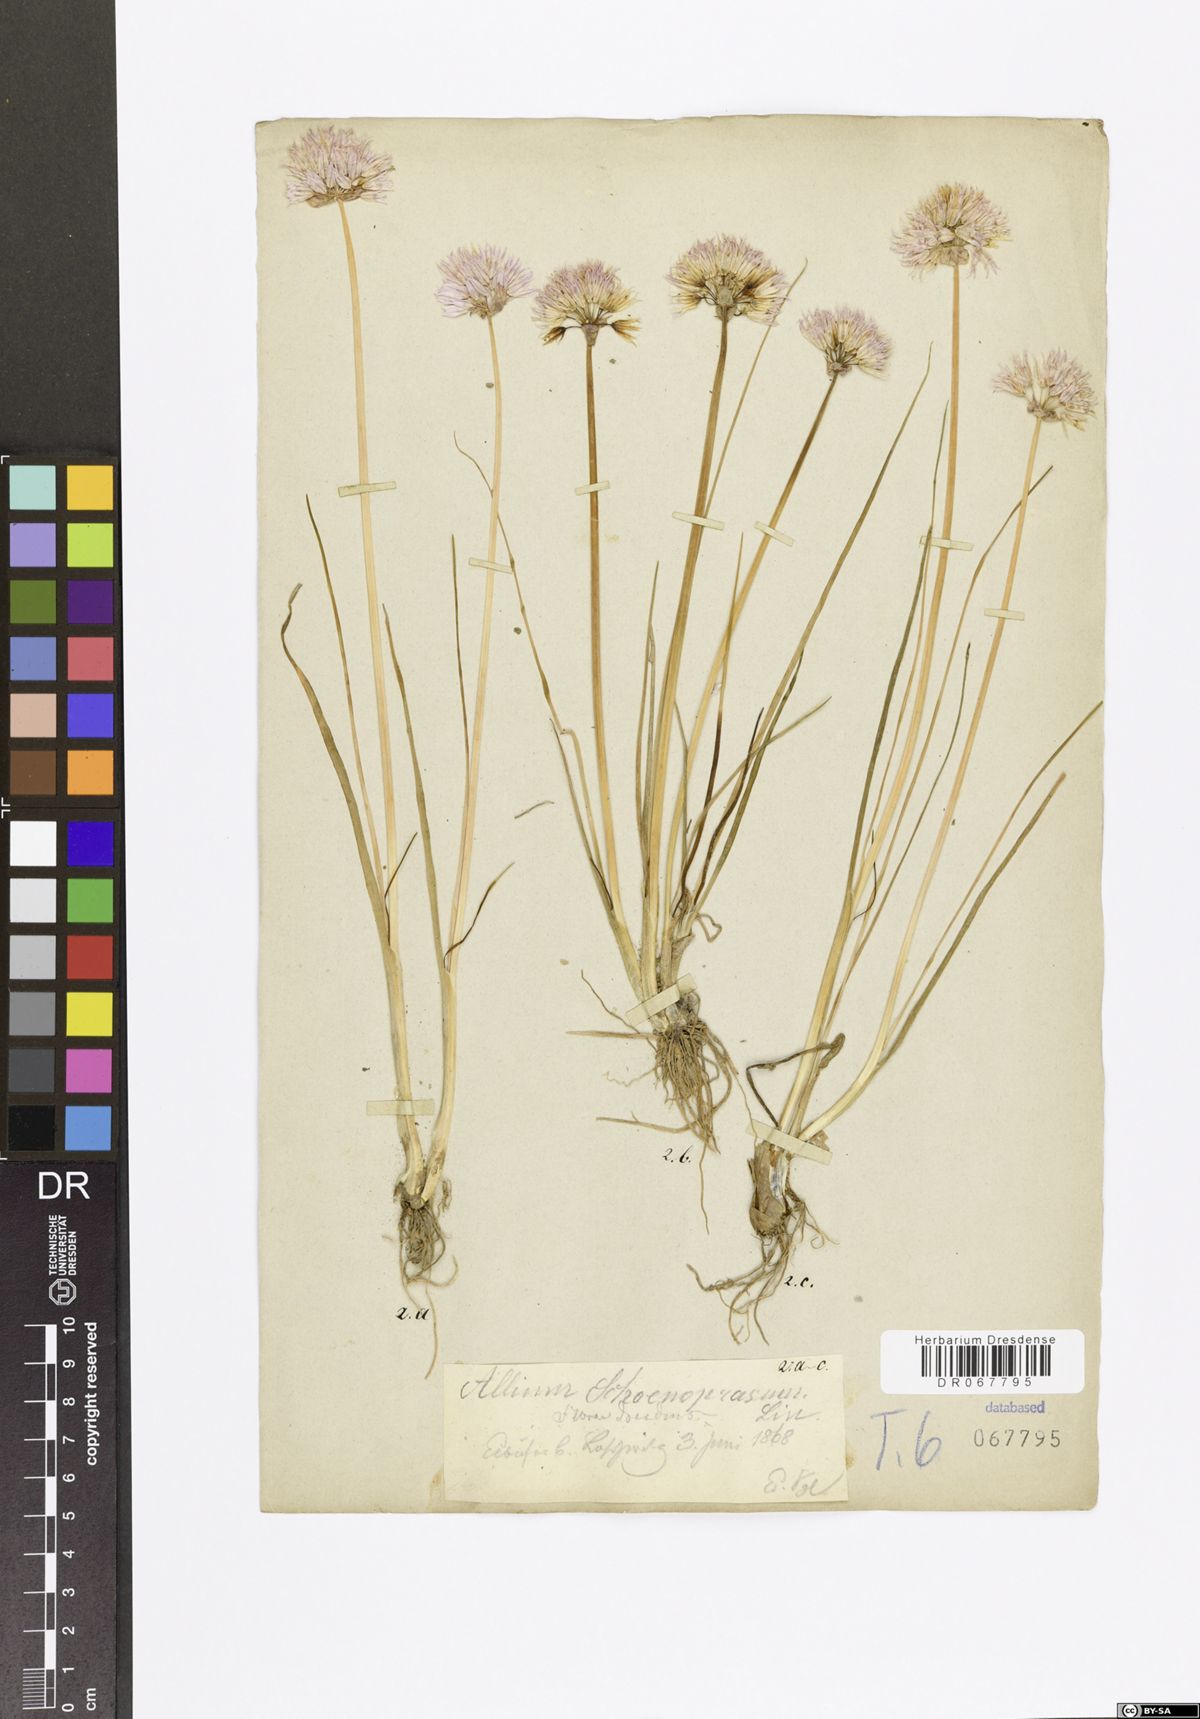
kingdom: Plantae
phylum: Tracheophyta
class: Liliopsida
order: Asparagales
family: Amaryllidaceae
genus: Allium
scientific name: Allium schoenoprasum
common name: Chives
